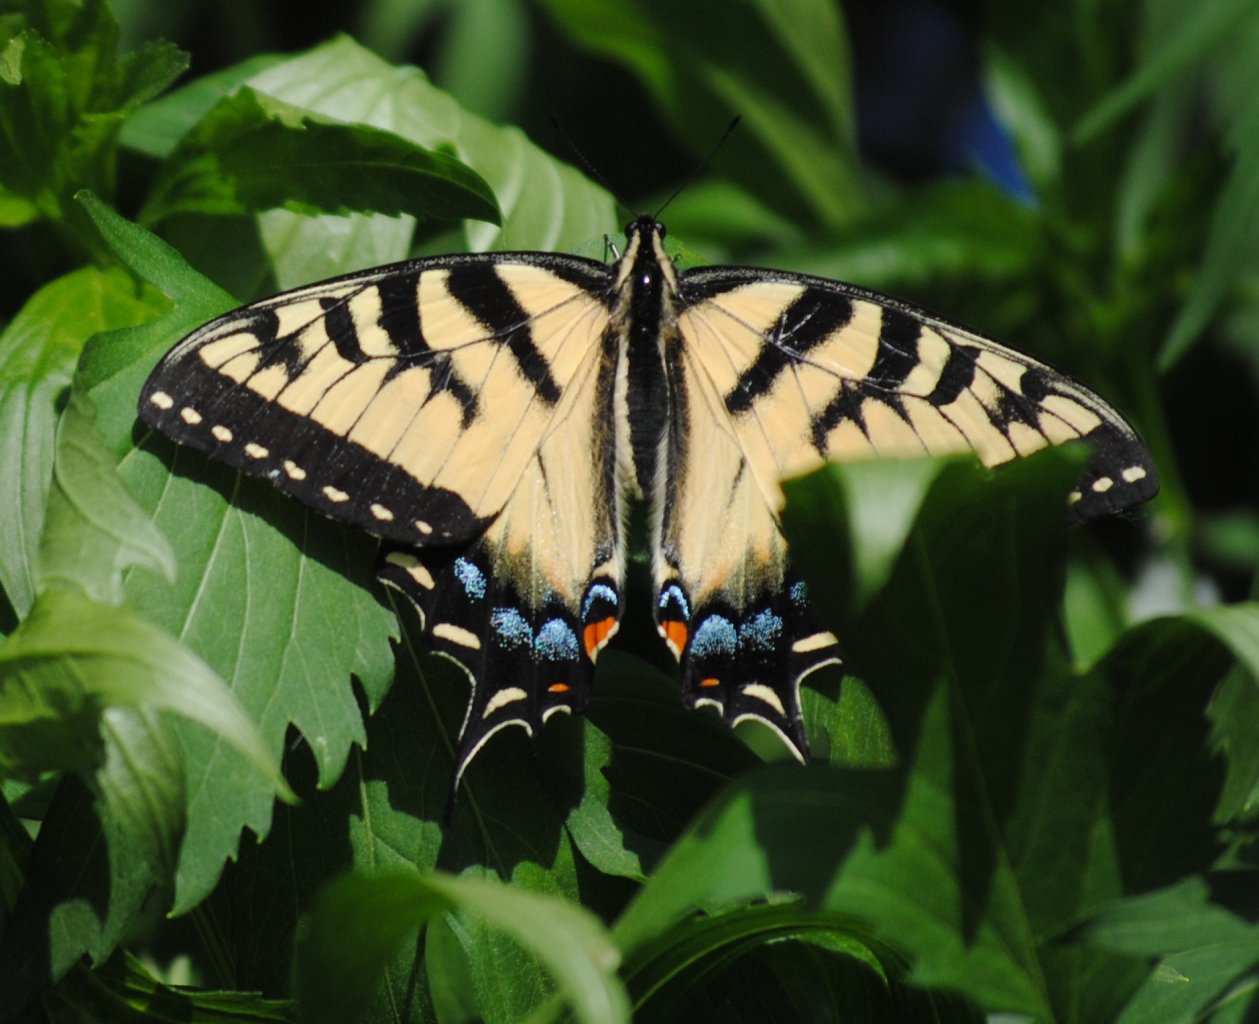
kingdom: Animalia
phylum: Arthropoda
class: Insecta
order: Lepidoptera
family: Papilionidae
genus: Pterourus
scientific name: Pterourus glaucus
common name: Eastern Tiger Swallowtail
